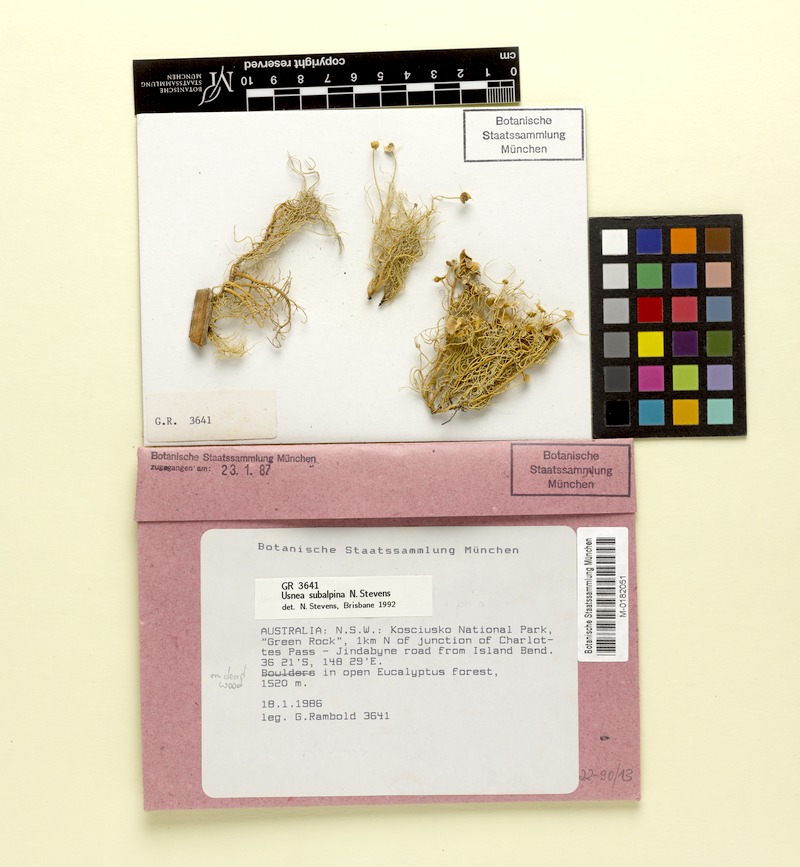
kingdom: Fungi
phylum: Ascomycota
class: Lecanoromycetes
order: Lecanorales
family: Parmeliaceae
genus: Usnea
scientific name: Usnea subalpina
